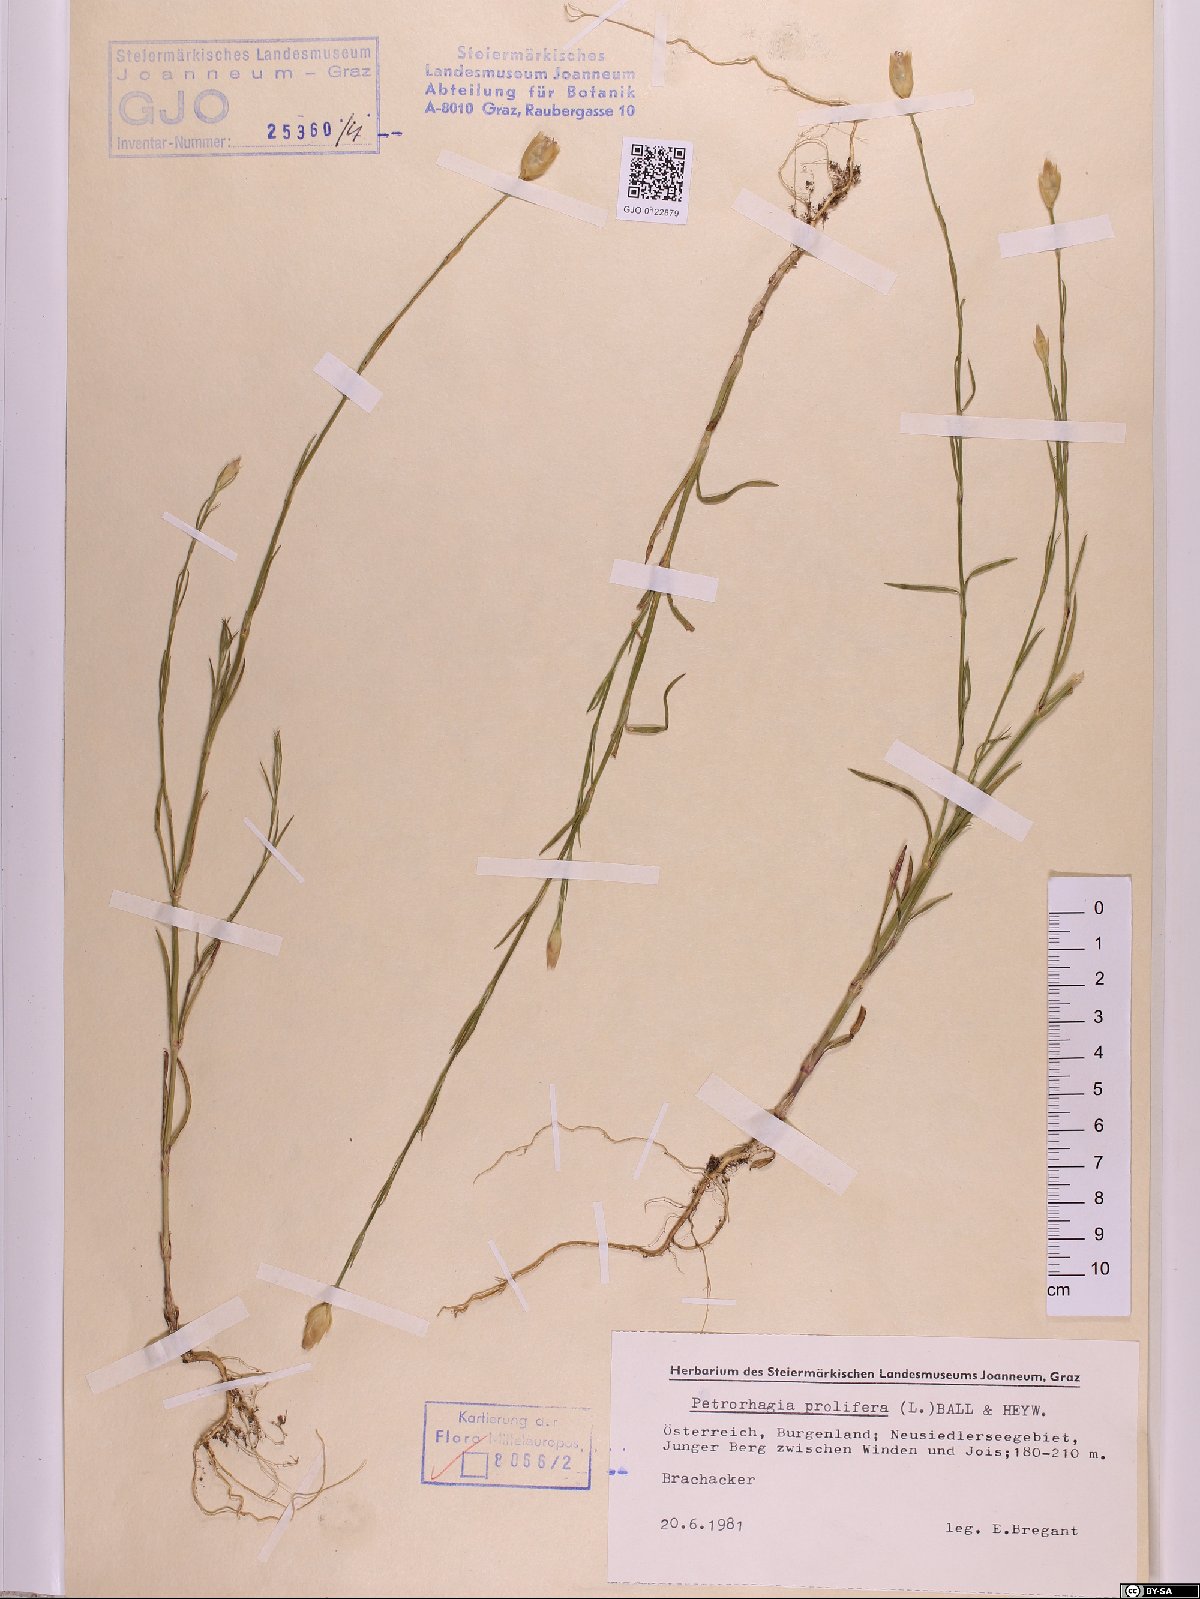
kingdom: Plantae
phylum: Tracheophyta
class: Magnoliopsida
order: Caryophyllales
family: Caryophyllaceae
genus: Petrorhagia
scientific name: Petrorhagia prolifera
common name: Proliferous pink
